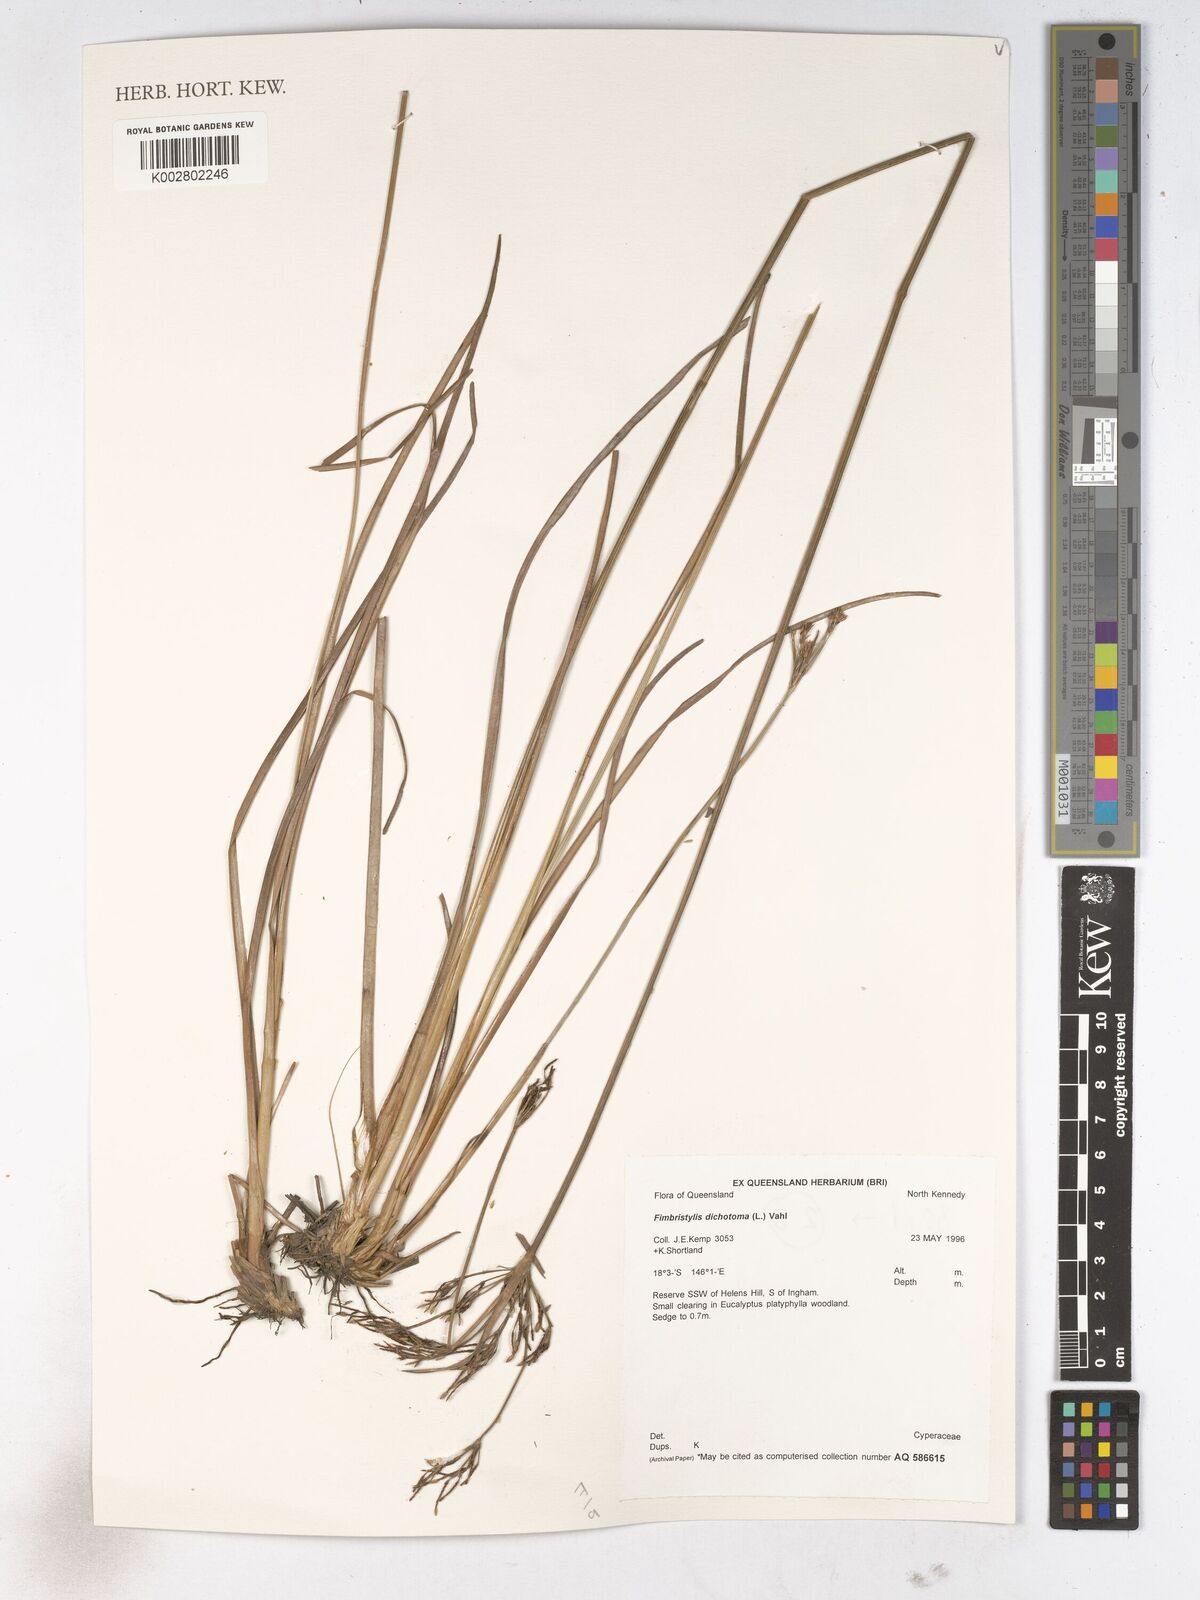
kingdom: Plantae
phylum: Tracheophyta
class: Liliopsida
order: Poales
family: Cyperaceae
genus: Fimbristylis
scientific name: Fimbristylis dichotoma
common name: Forked fimbry
